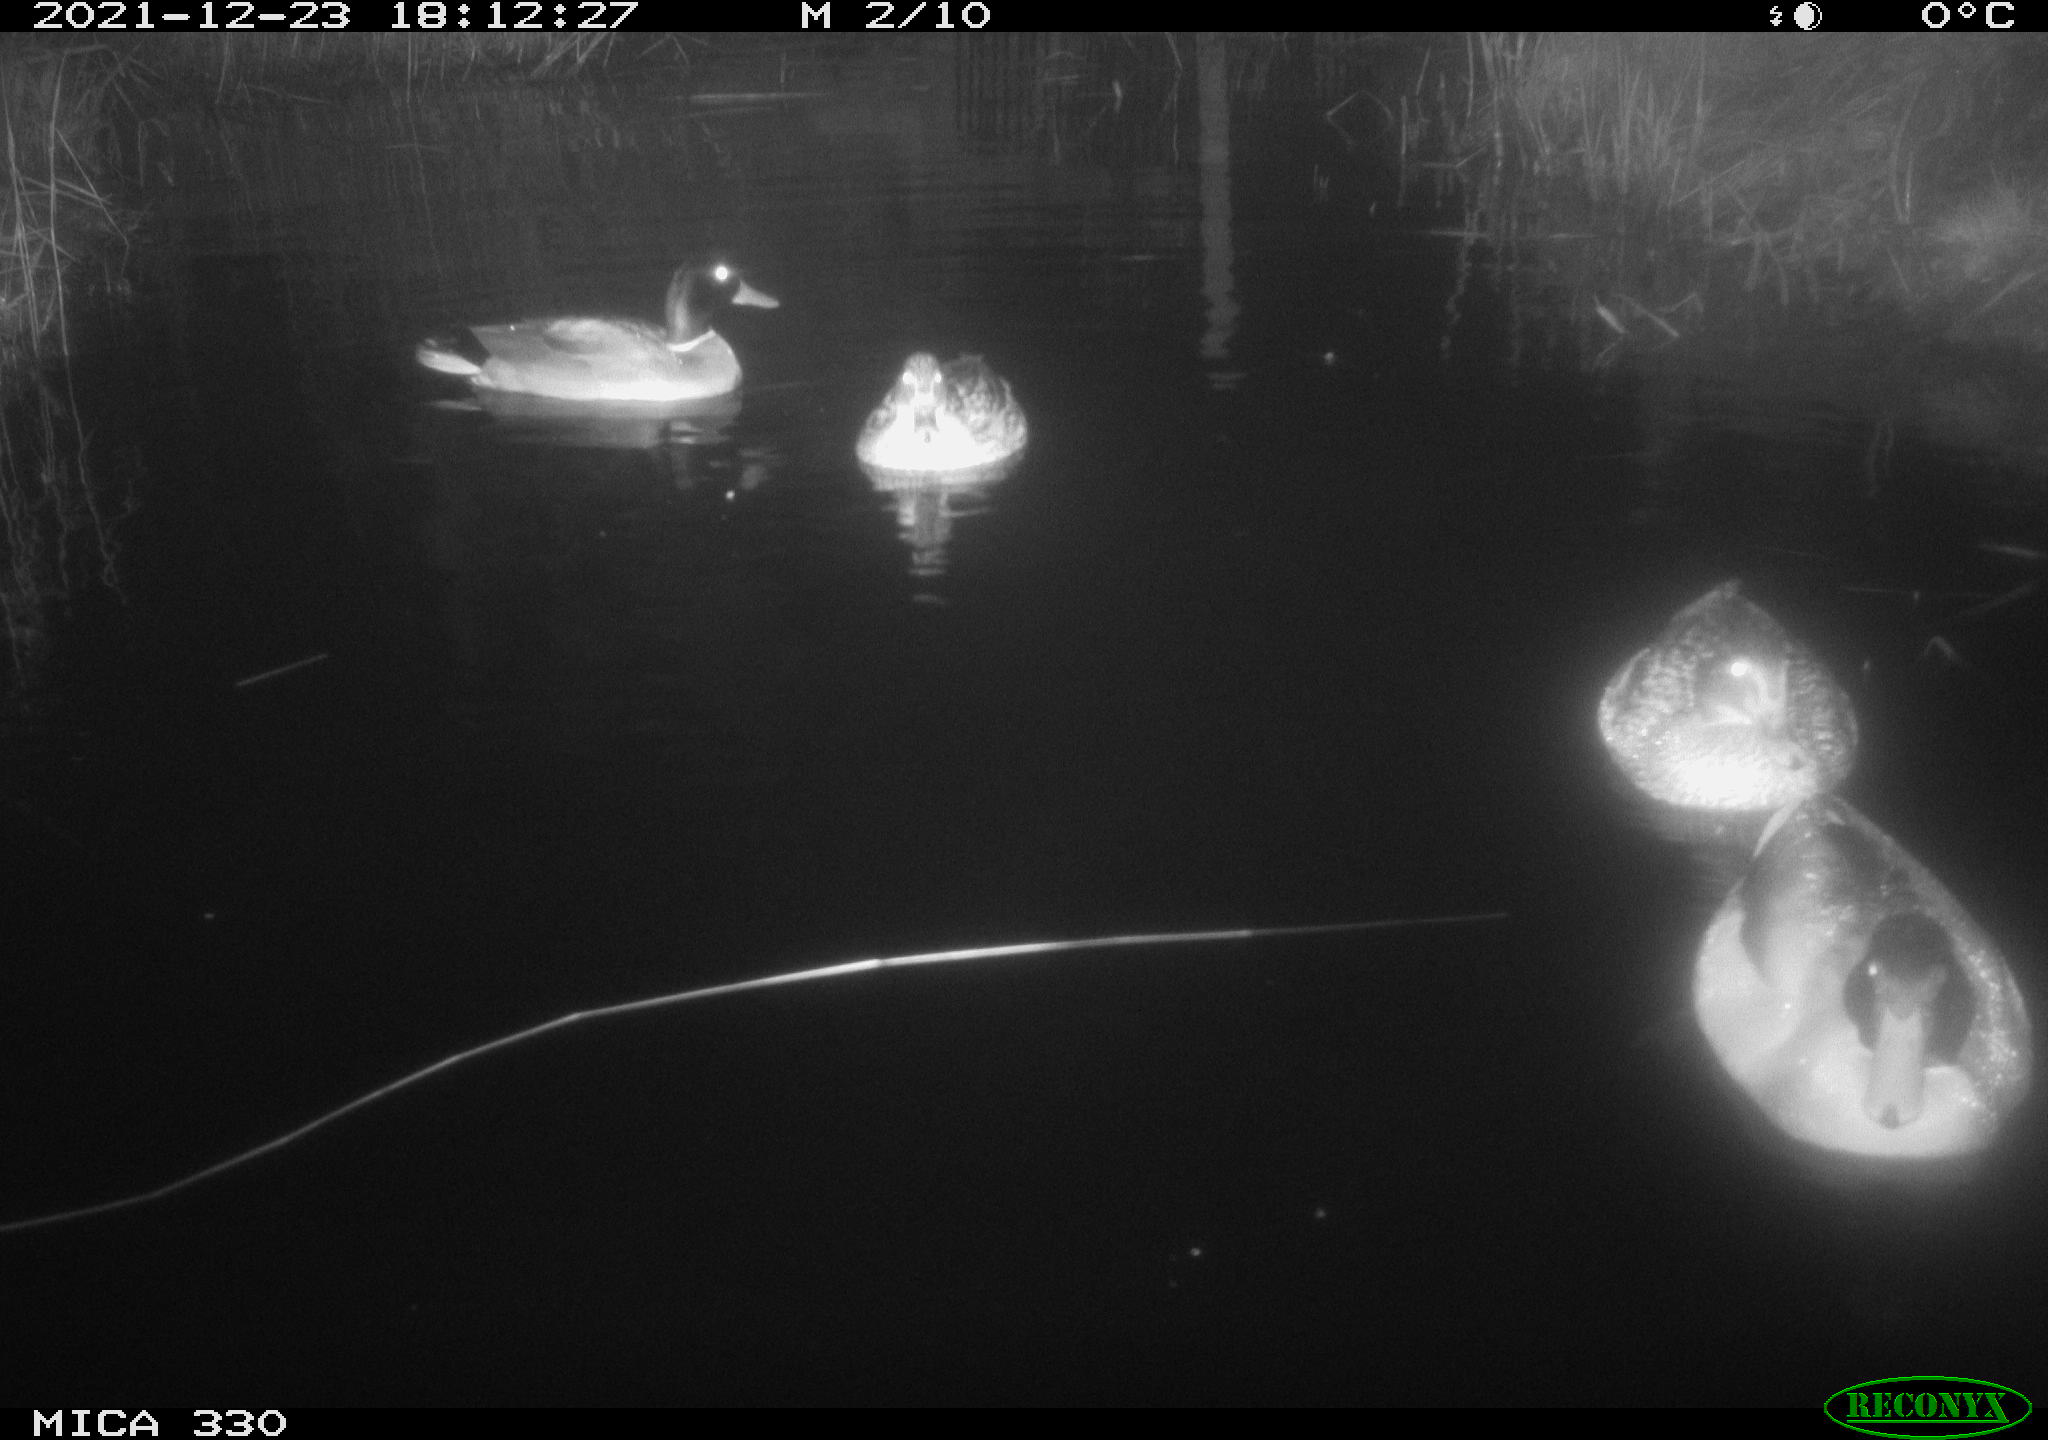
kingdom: Animalia
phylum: Chordata
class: Aves
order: Anseriformes
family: Anatidae
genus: Anas
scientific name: Anas platyrhynchos
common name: Mallard
